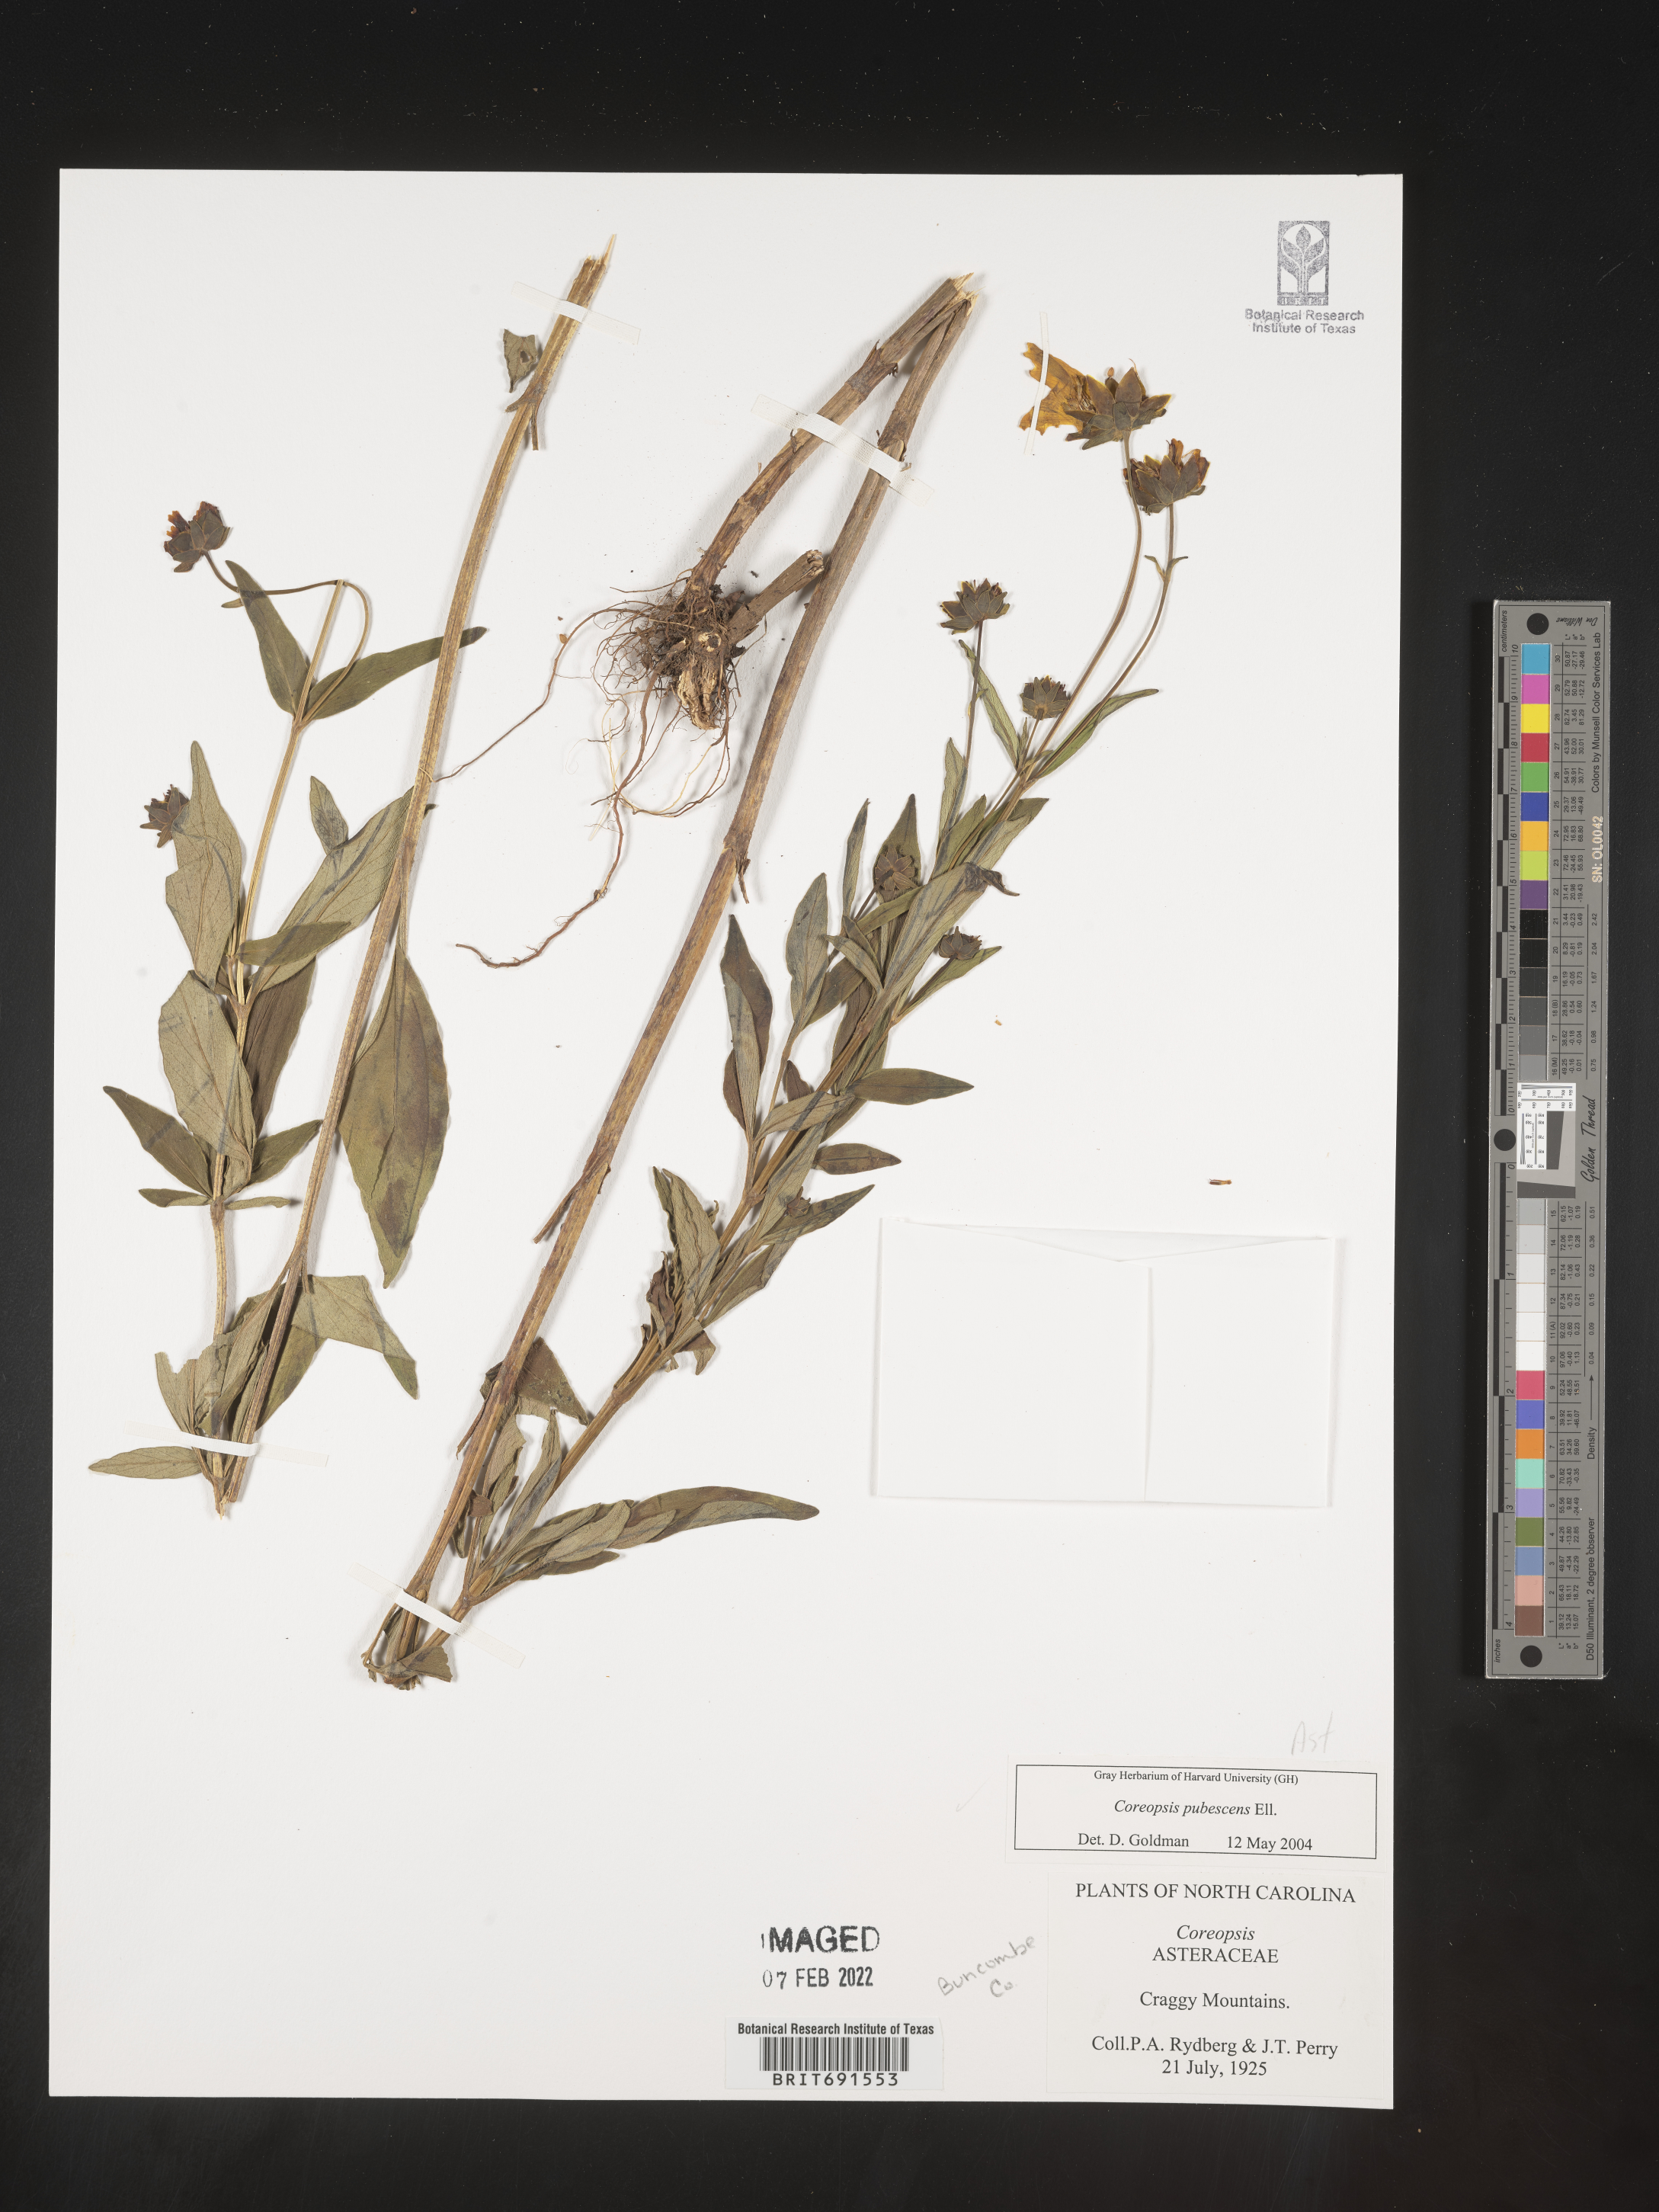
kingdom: Plantae
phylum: Tracheophyta
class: Magnoliopsida
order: Asterales
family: Asteraceae
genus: Coreopsis
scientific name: Coreopsis pubescens
